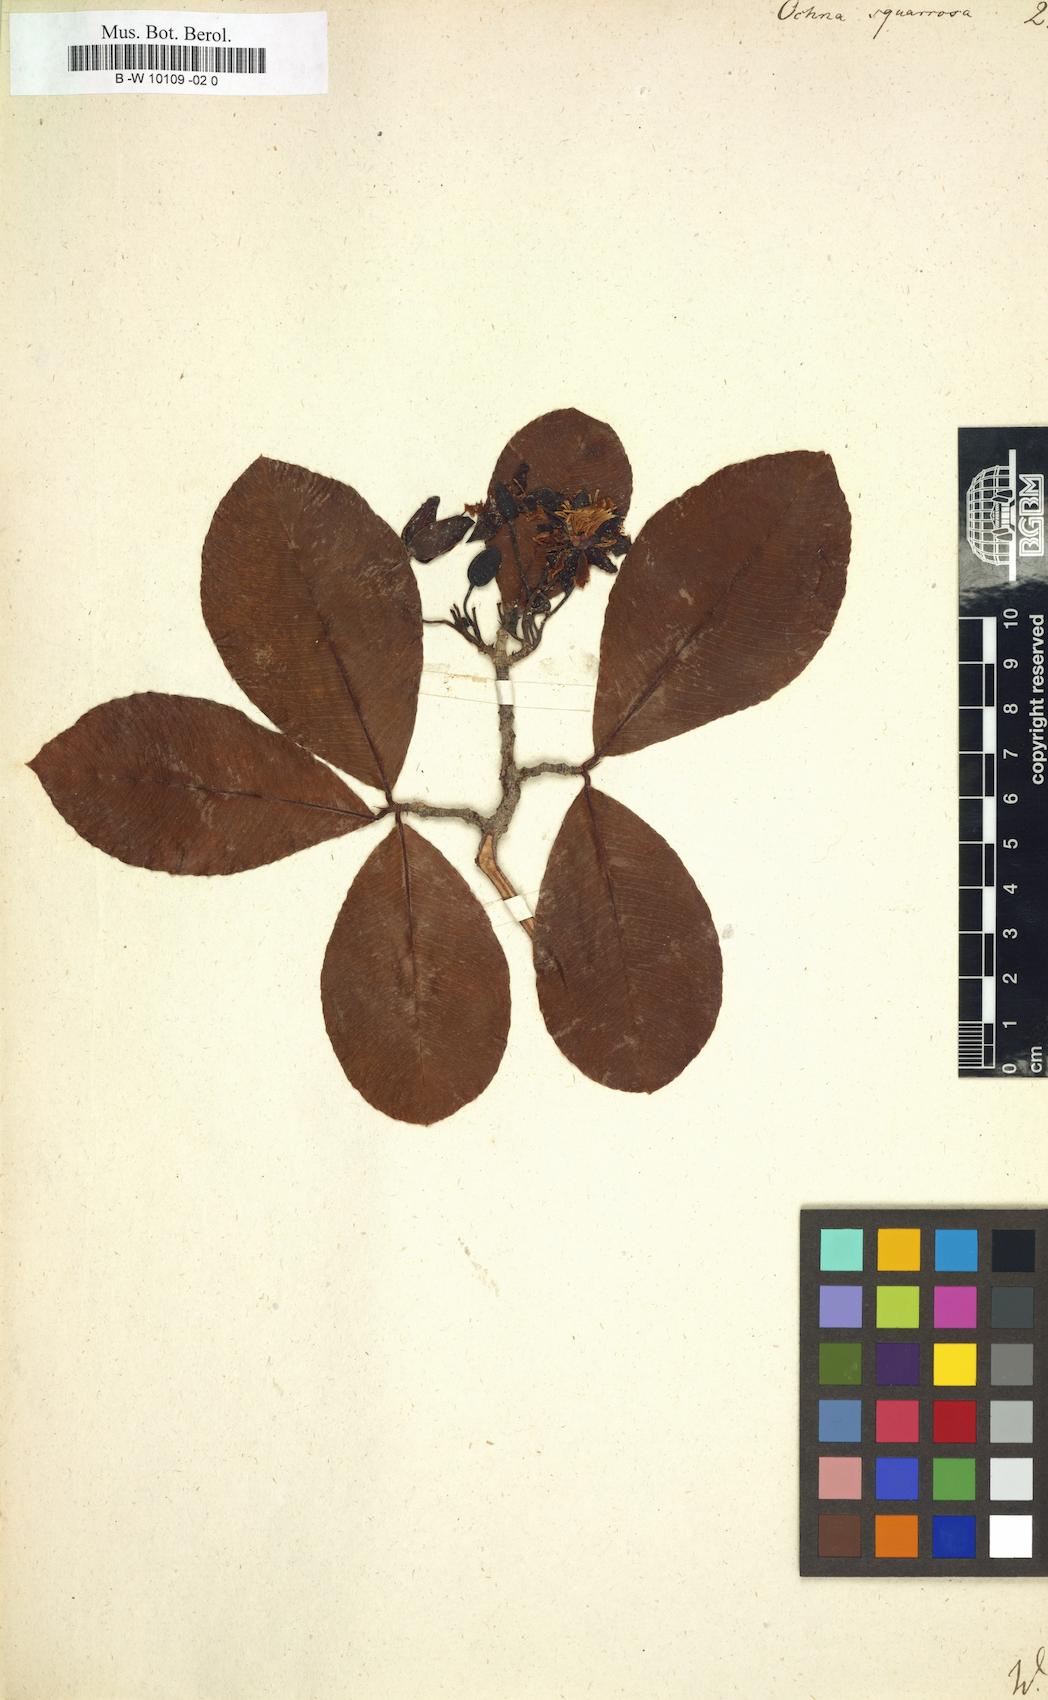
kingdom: Plantae
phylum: Tracheophyta
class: Magnoliopsida
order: Malpighiales
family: Ochnaceae
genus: Ochna
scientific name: Ochna
